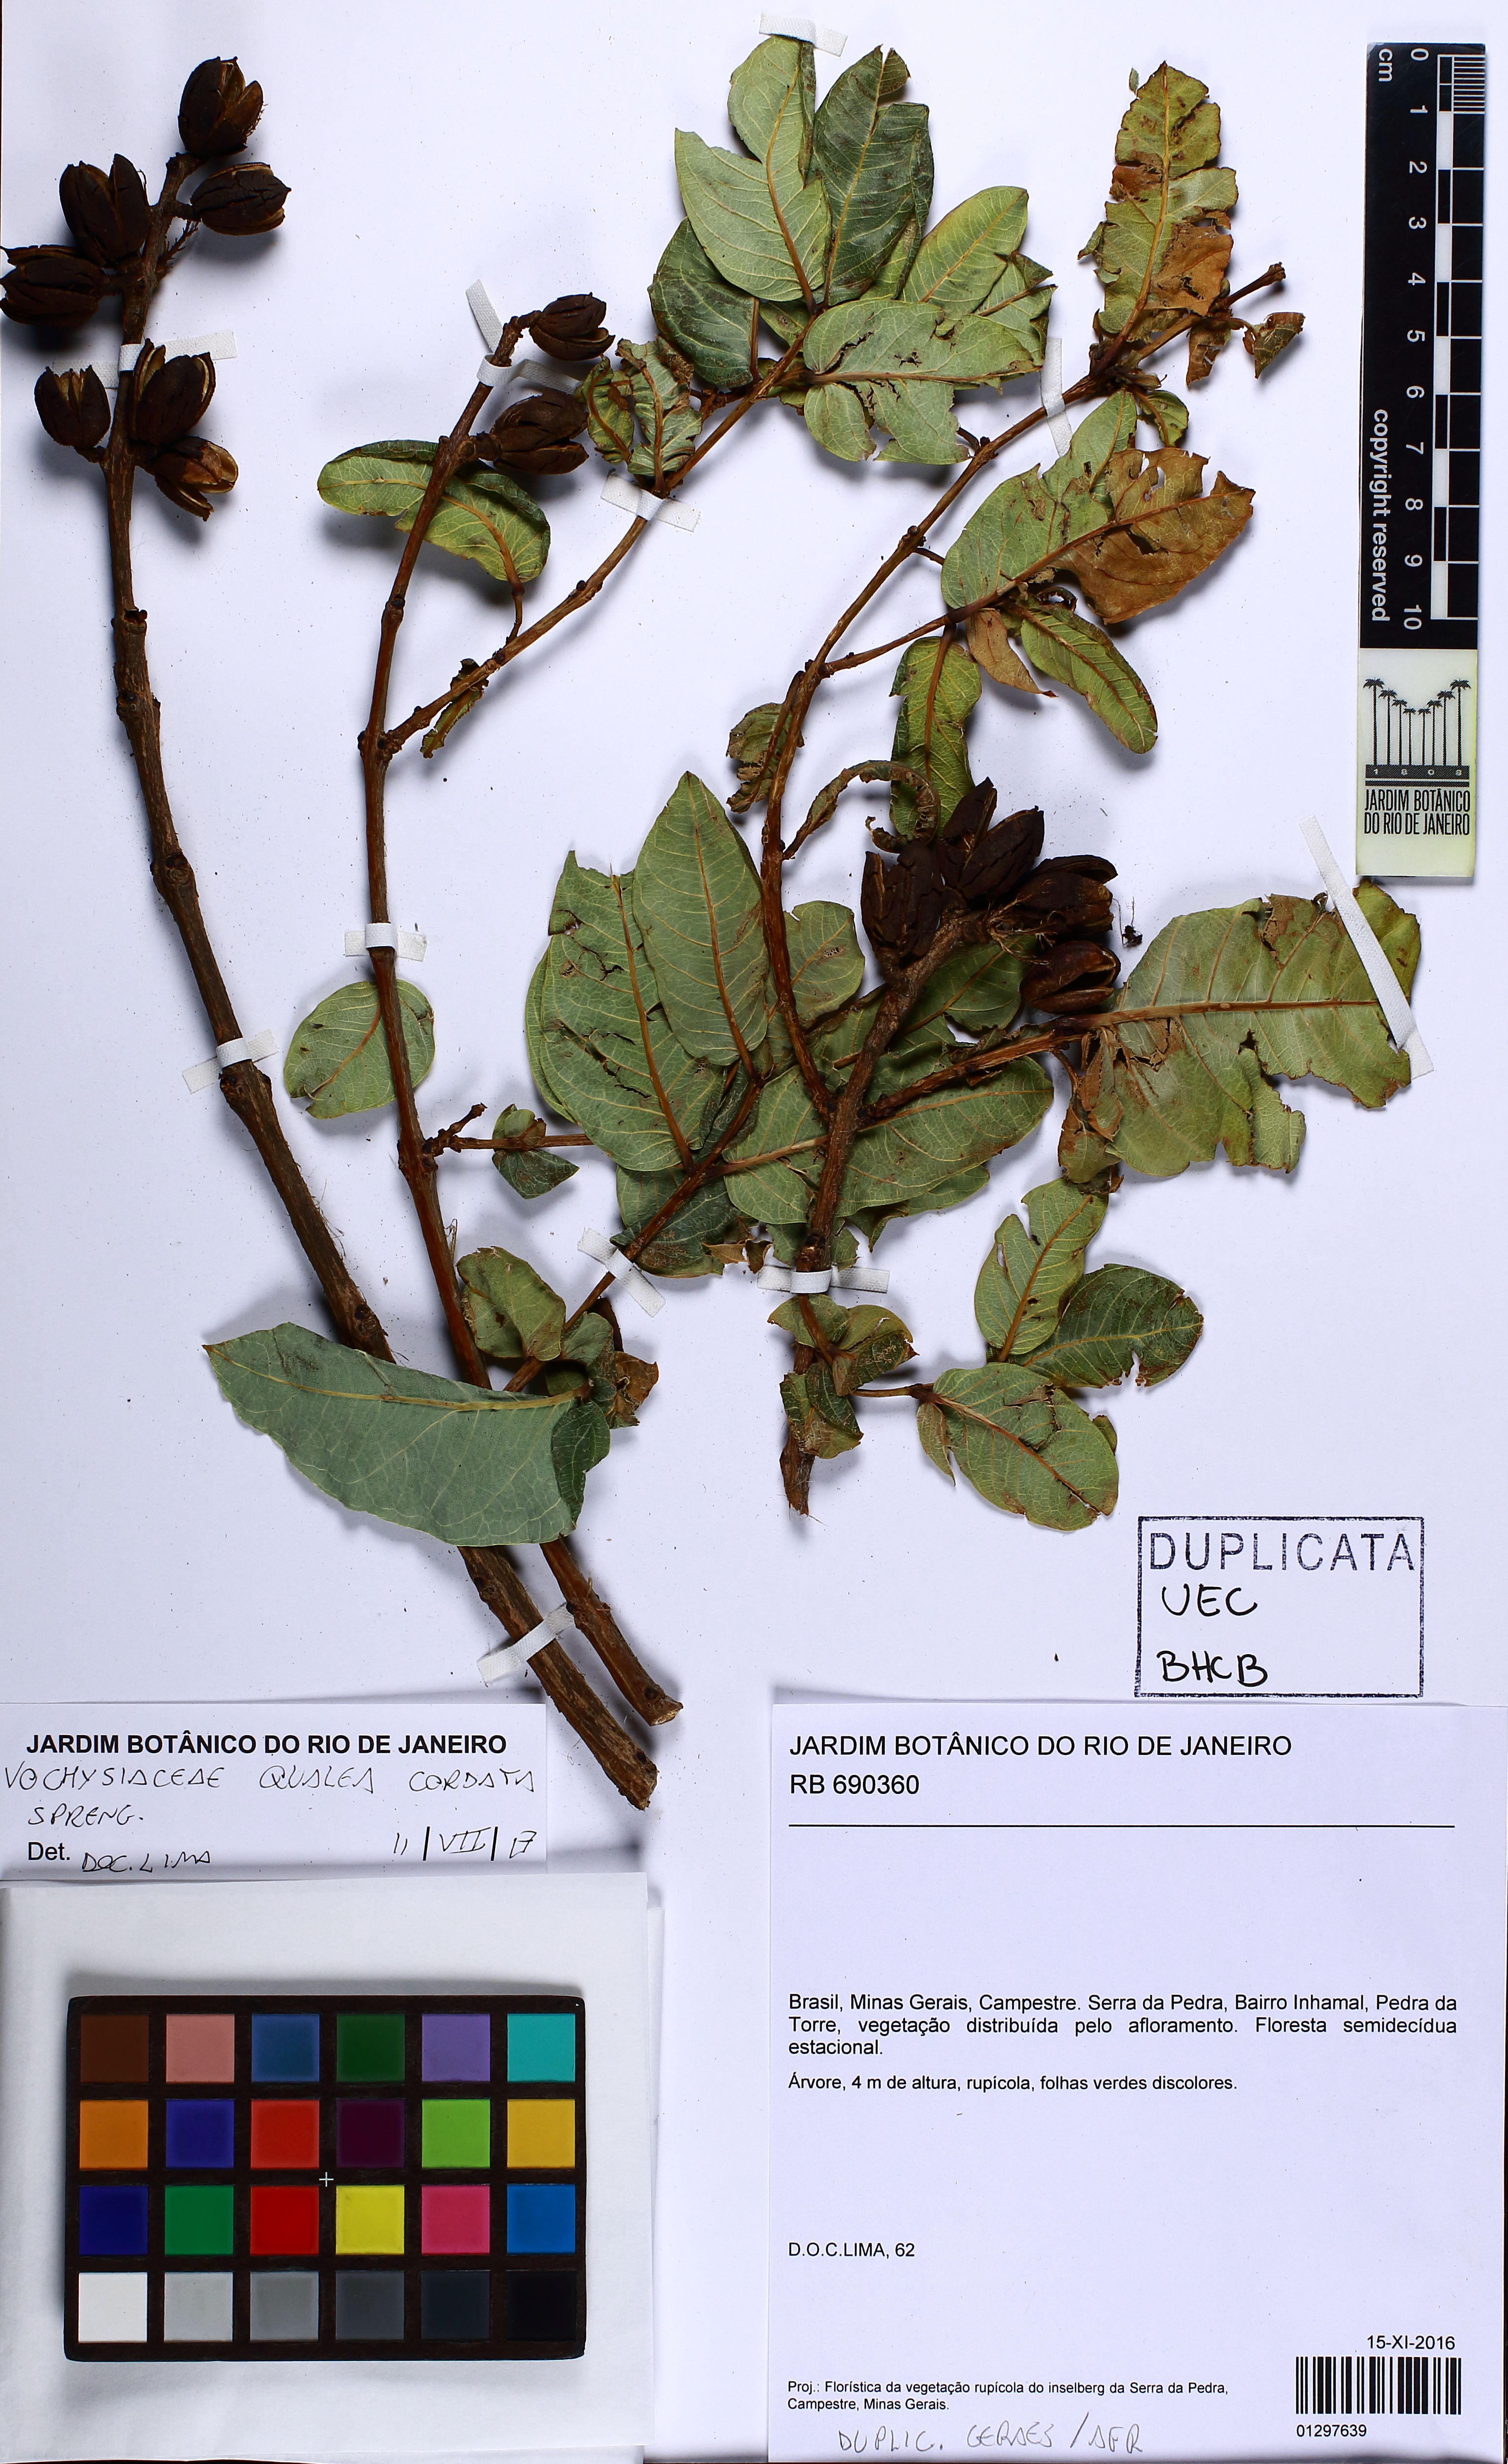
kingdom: Plantae
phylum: Tracheophyta
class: Magnoliopsida
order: Myrtales
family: Vochysiaceae
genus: Qualea
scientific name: Qualea cordata
